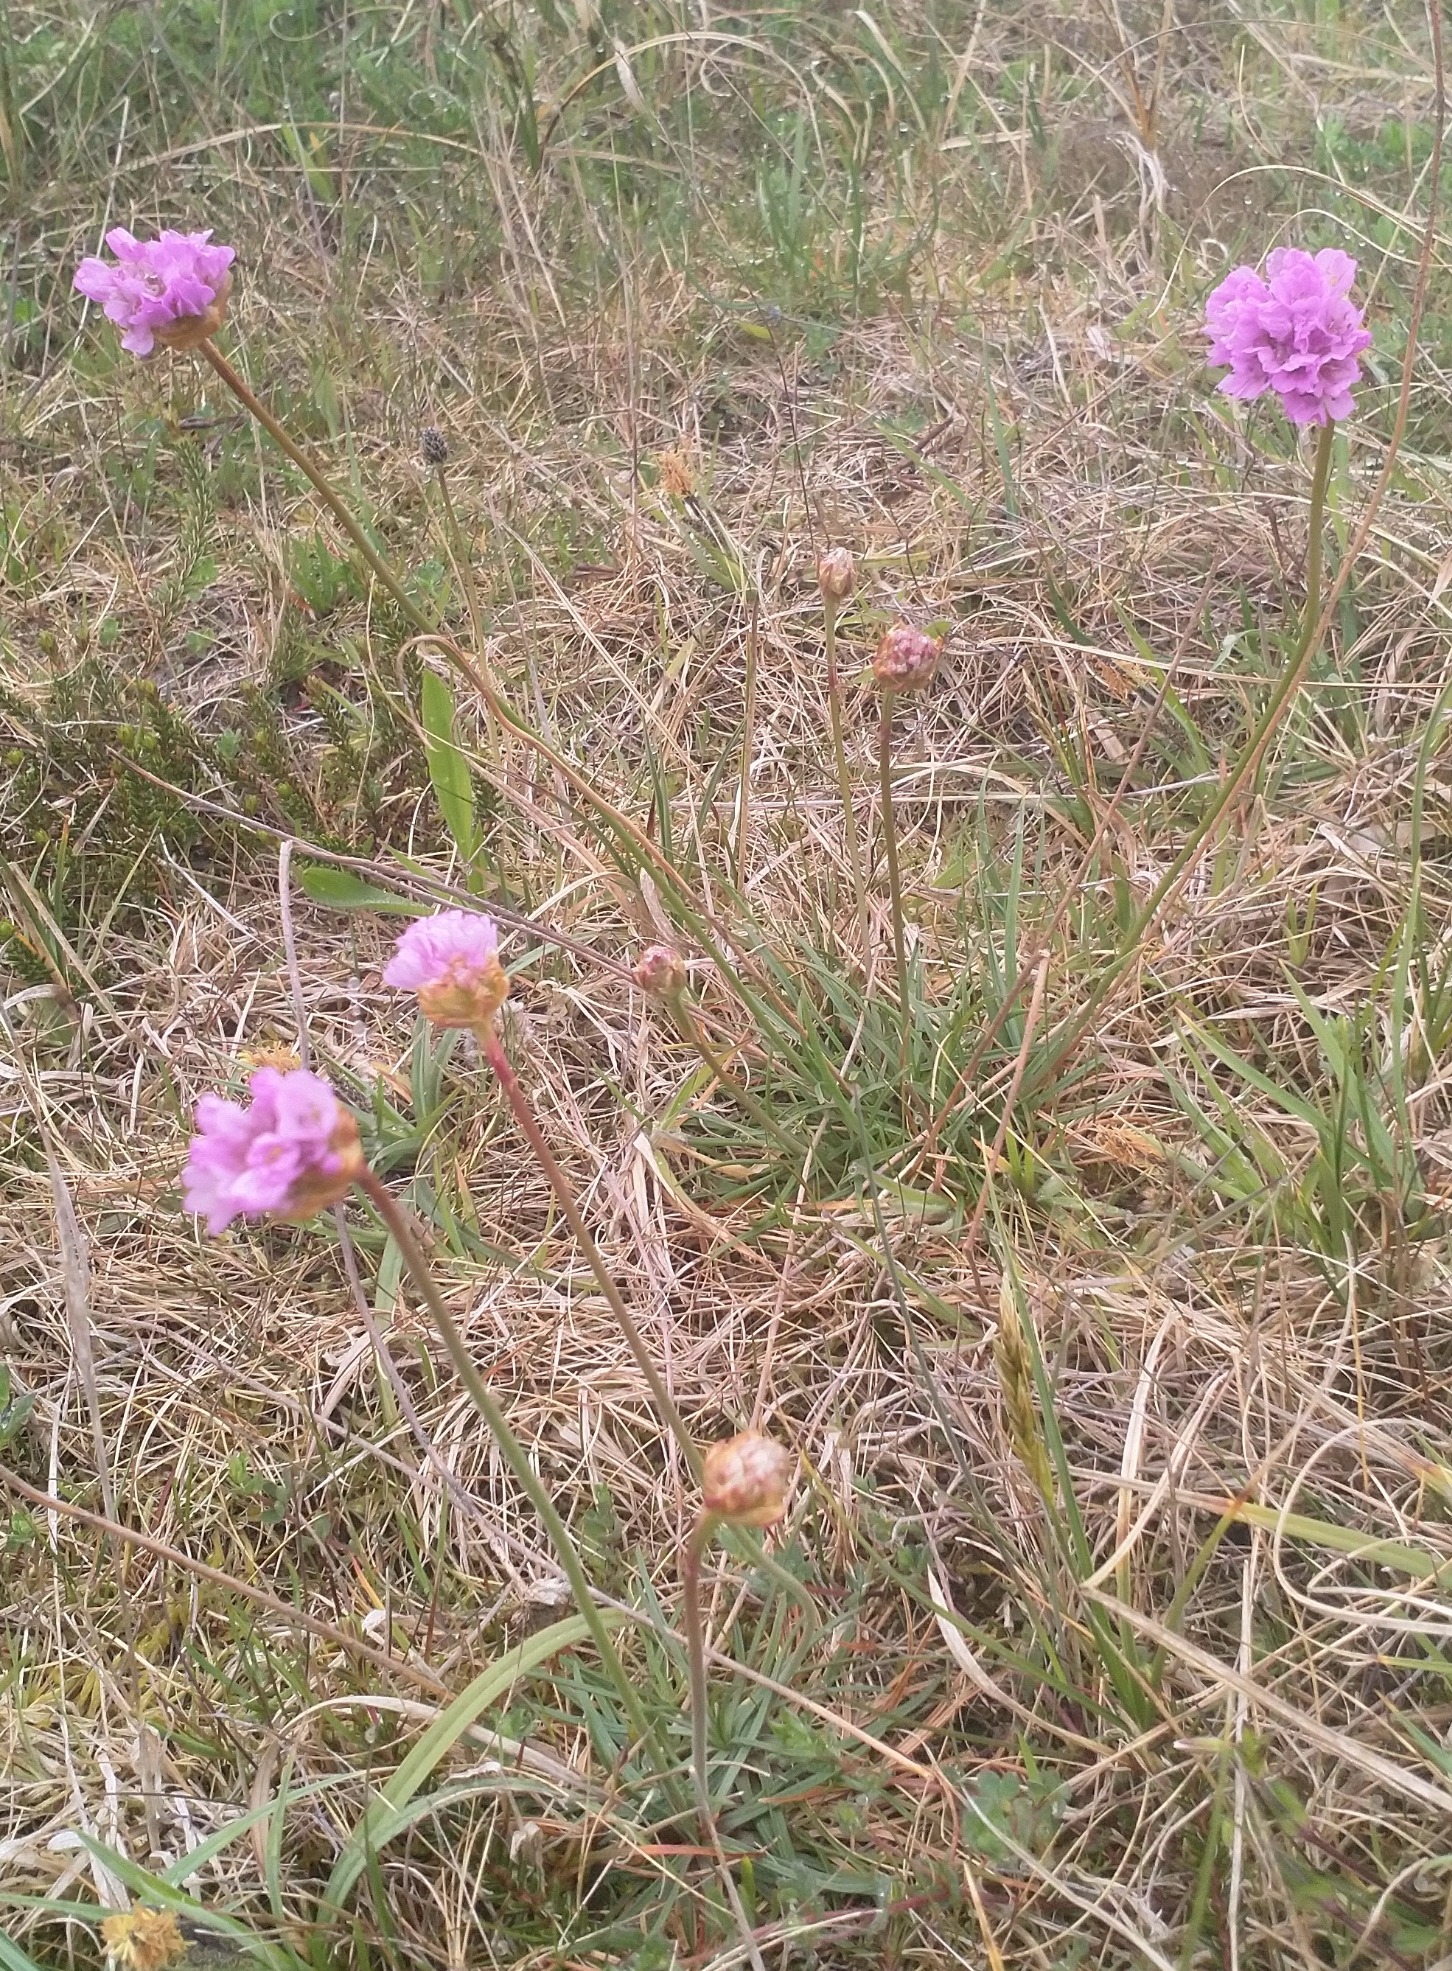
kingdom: Plantae
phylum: Tracheophyta
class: Magnoliopsida
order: Caryophyllales
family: Plumbaginaceae
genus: Armeria
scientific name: Armeria maritima
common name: Engelskgræs
